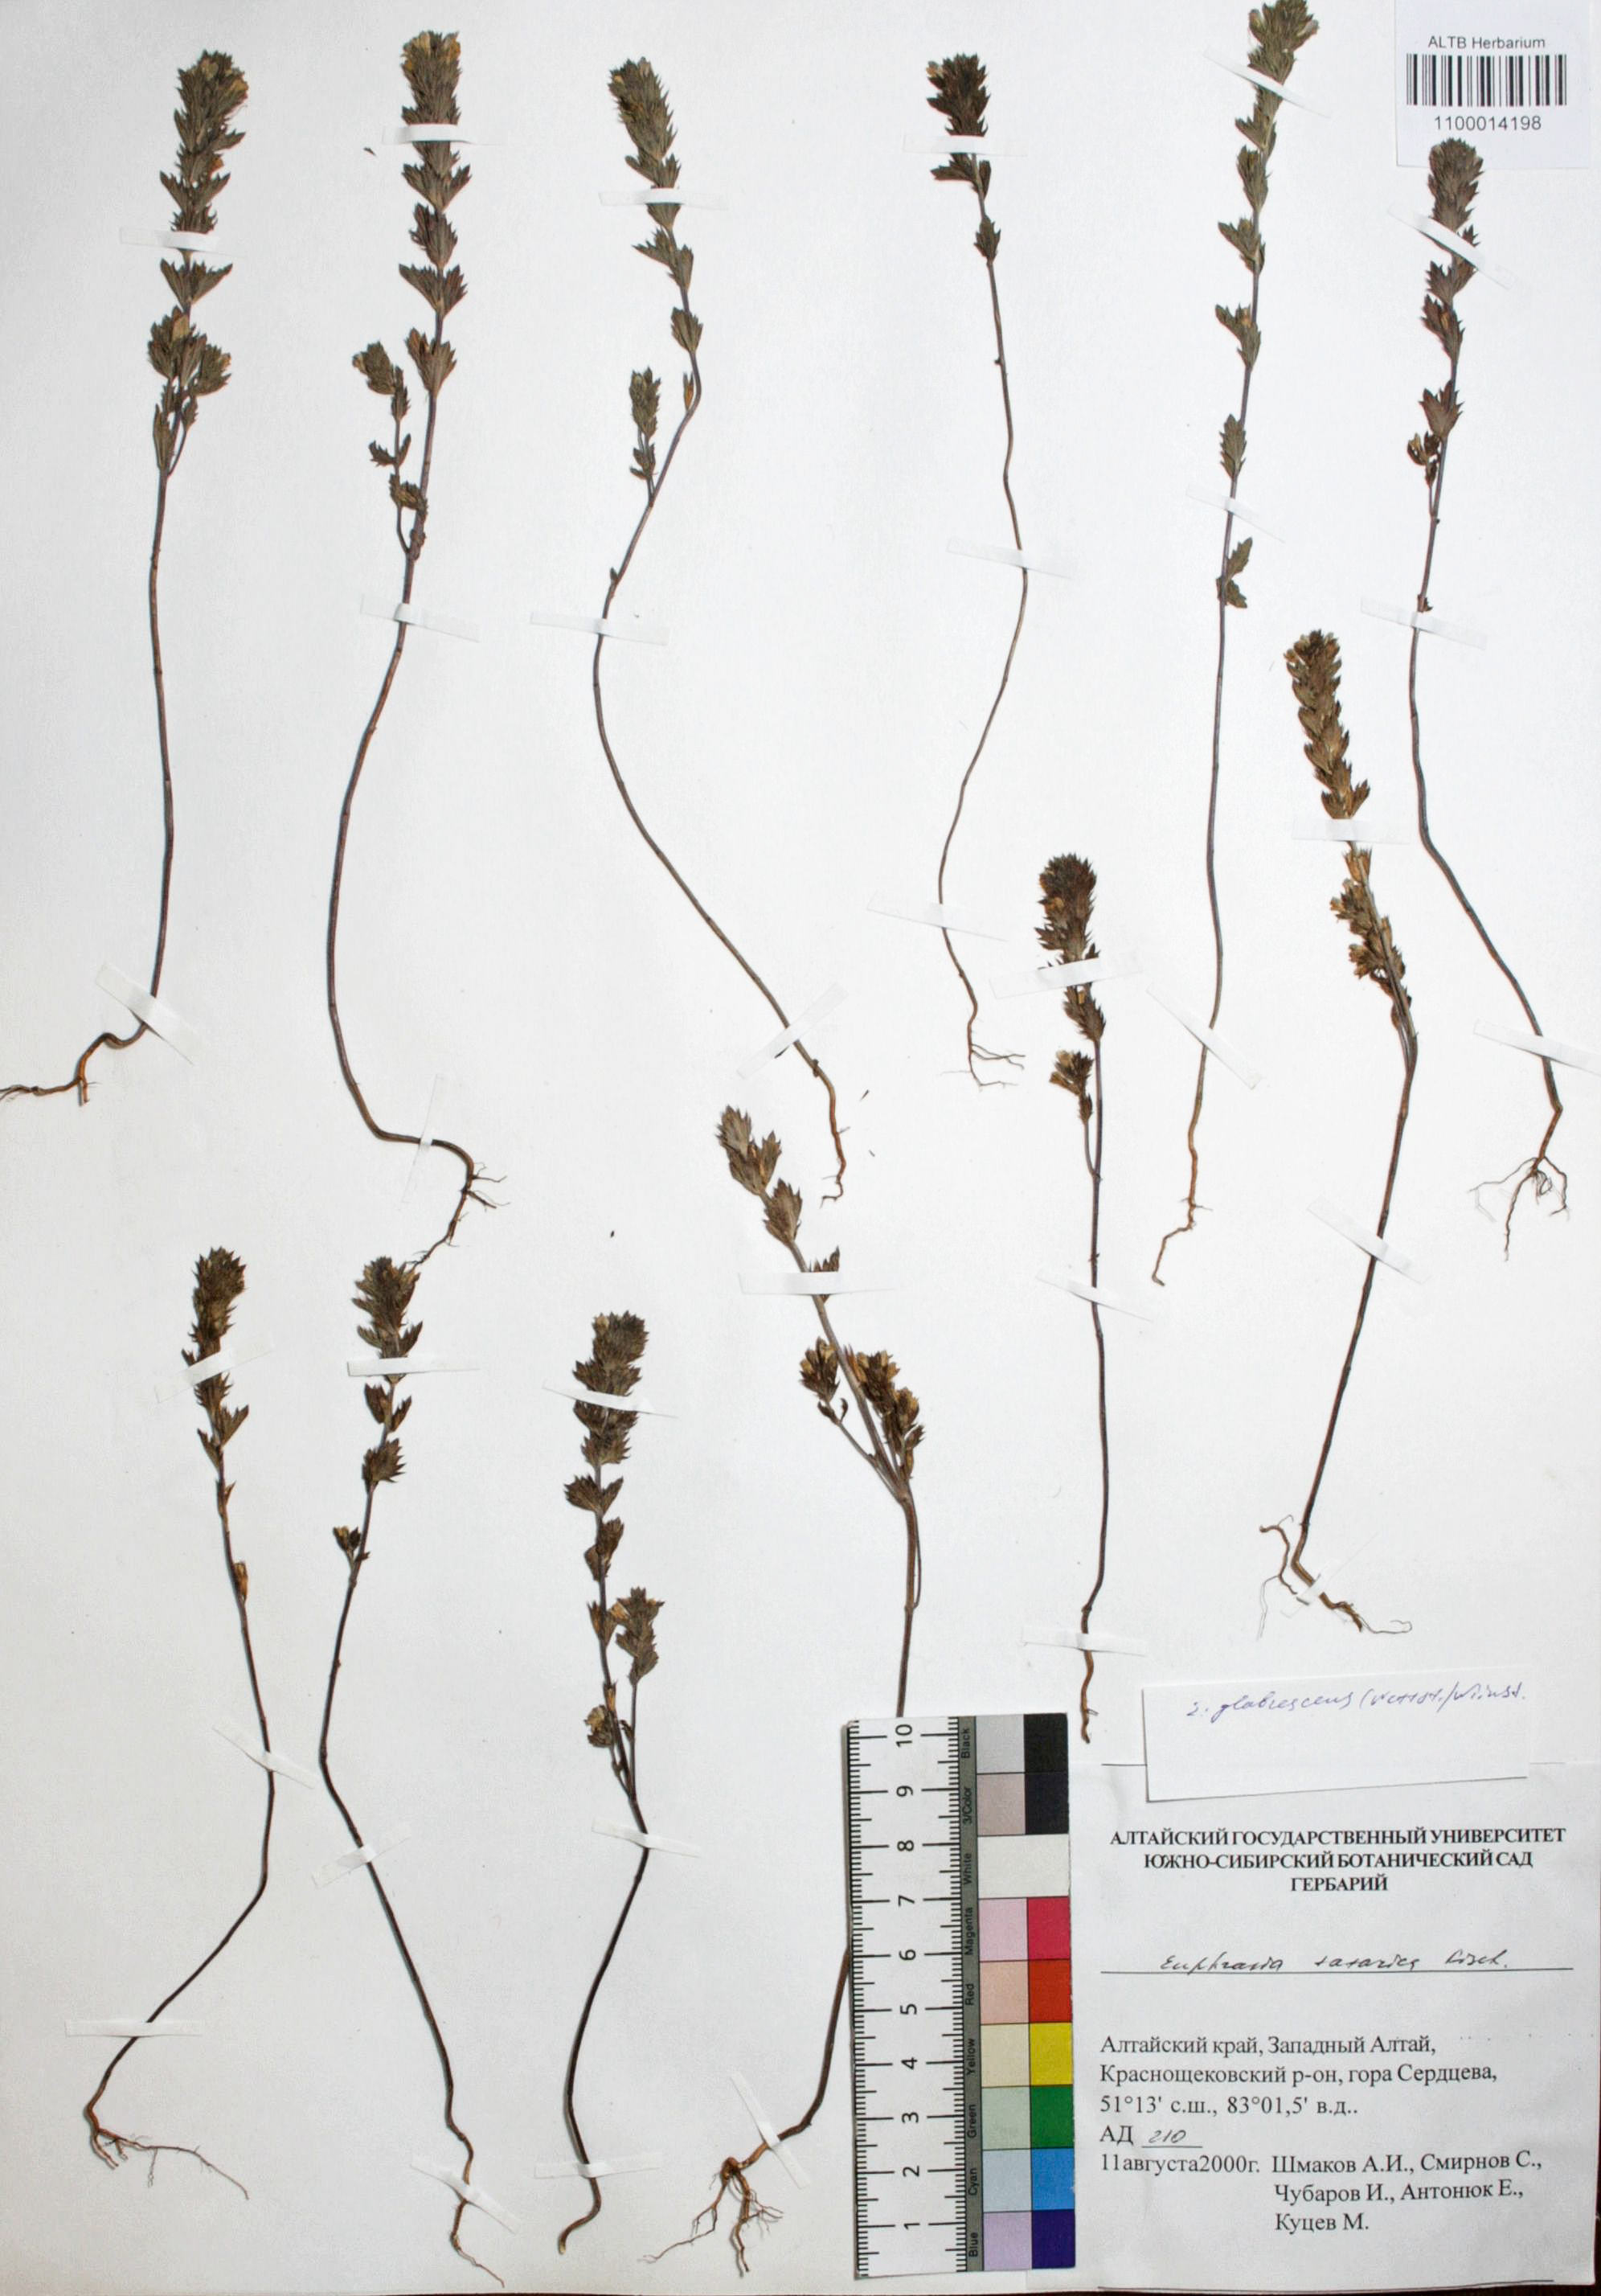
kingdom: Plantae
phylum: Tracheophyta
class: Magnoliopsida
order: Lamiales
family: Orobanchaceae
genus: Euphrasia
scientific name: Euphrasia micrantha
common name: Northern eyebright
